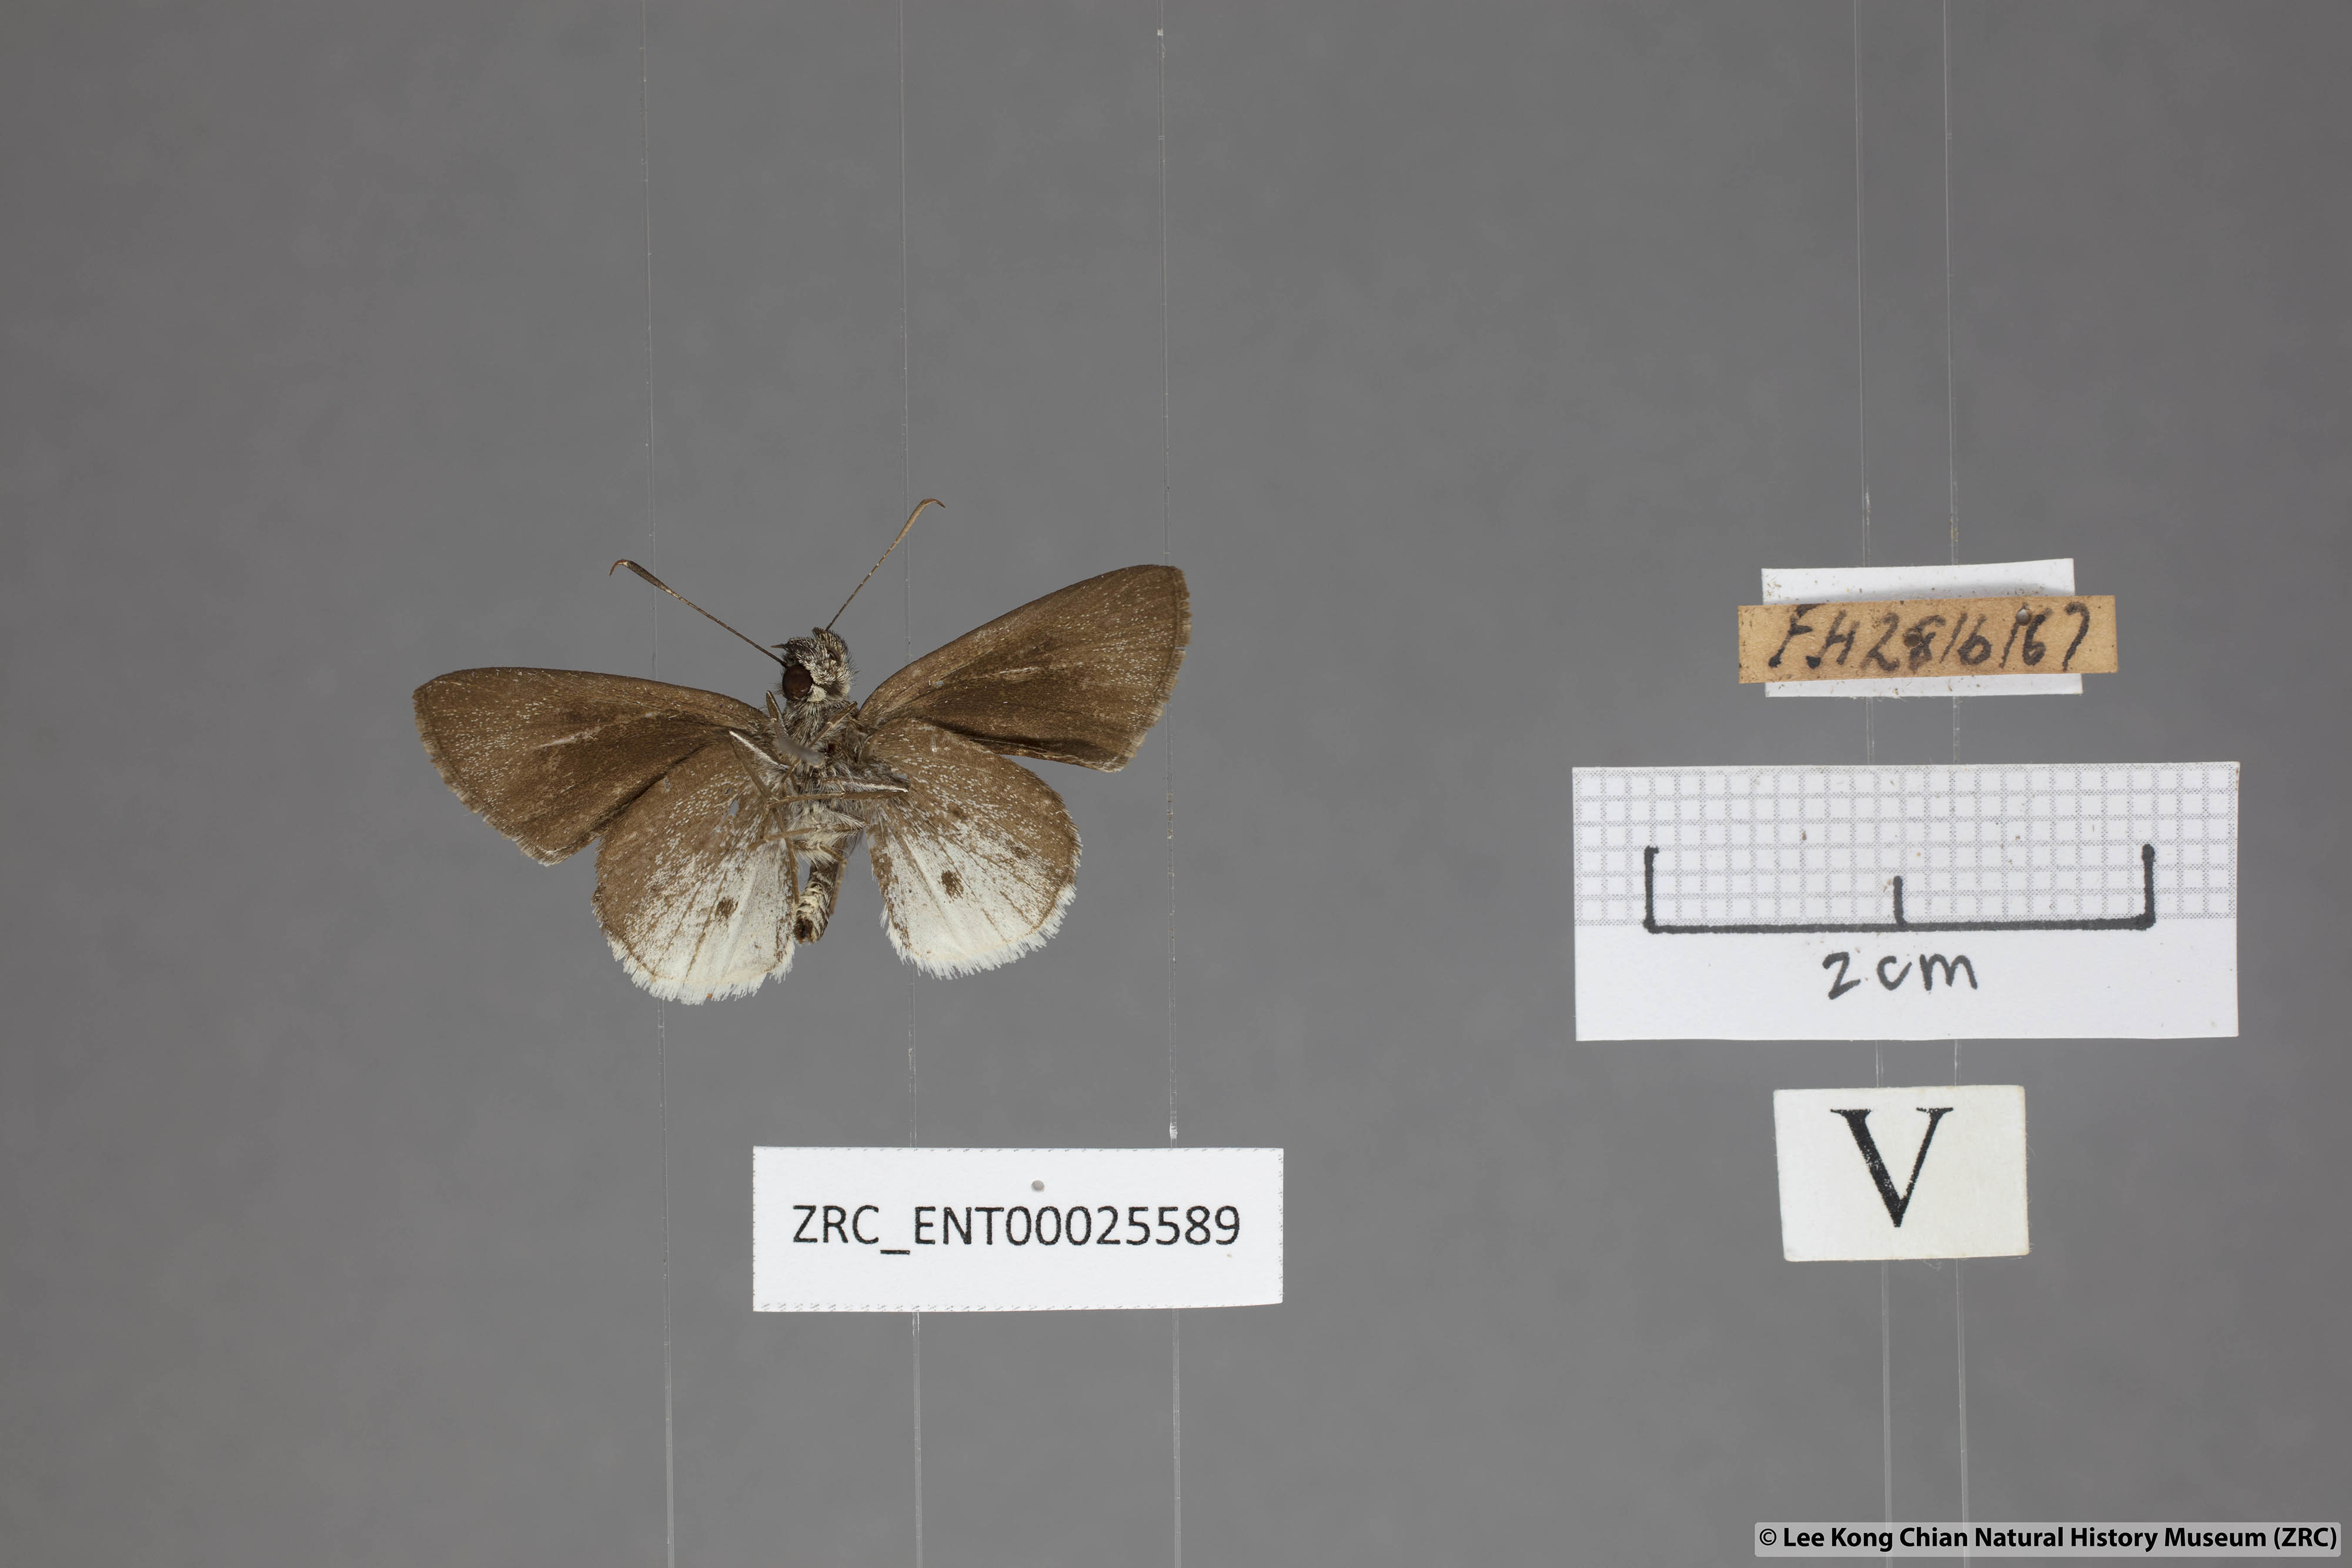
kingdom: Animalia
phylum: Arthropoda
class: Insecta
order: Lepidoptera
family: Hesperiidae
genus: Suastus
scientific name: Suastus everyx
